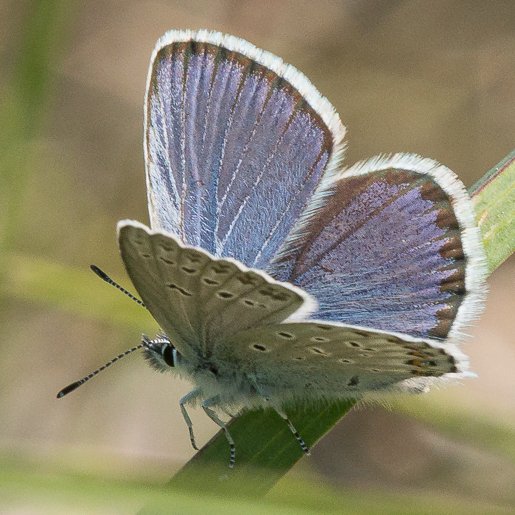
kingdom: Animalia
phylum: Arthropoda
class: Insecta
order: Lepidoptera
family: Lycaenidae
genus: Lycaeides
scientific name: Lycaeides idas
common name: Northern Blue
